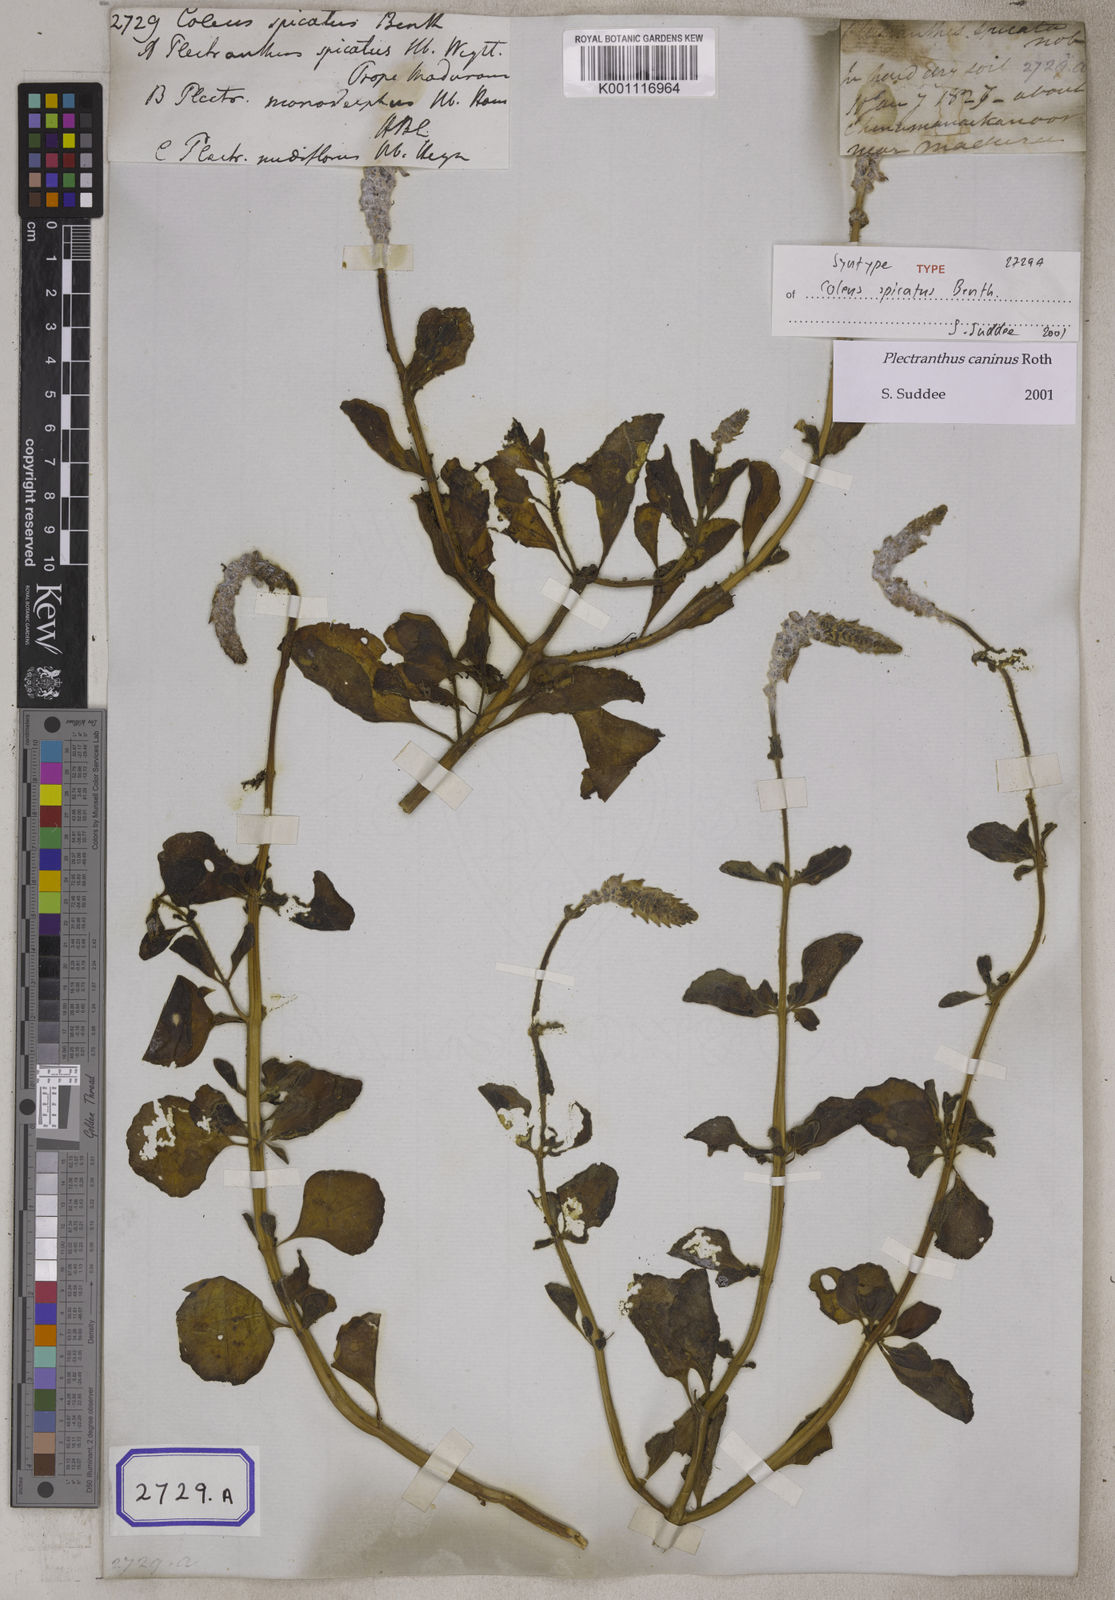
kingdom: Plantae
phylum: Tracheophyta
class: Magnoliopsida
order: Lamiales
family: Lamiaceae
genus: Coleus
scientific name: Coleus caninus
